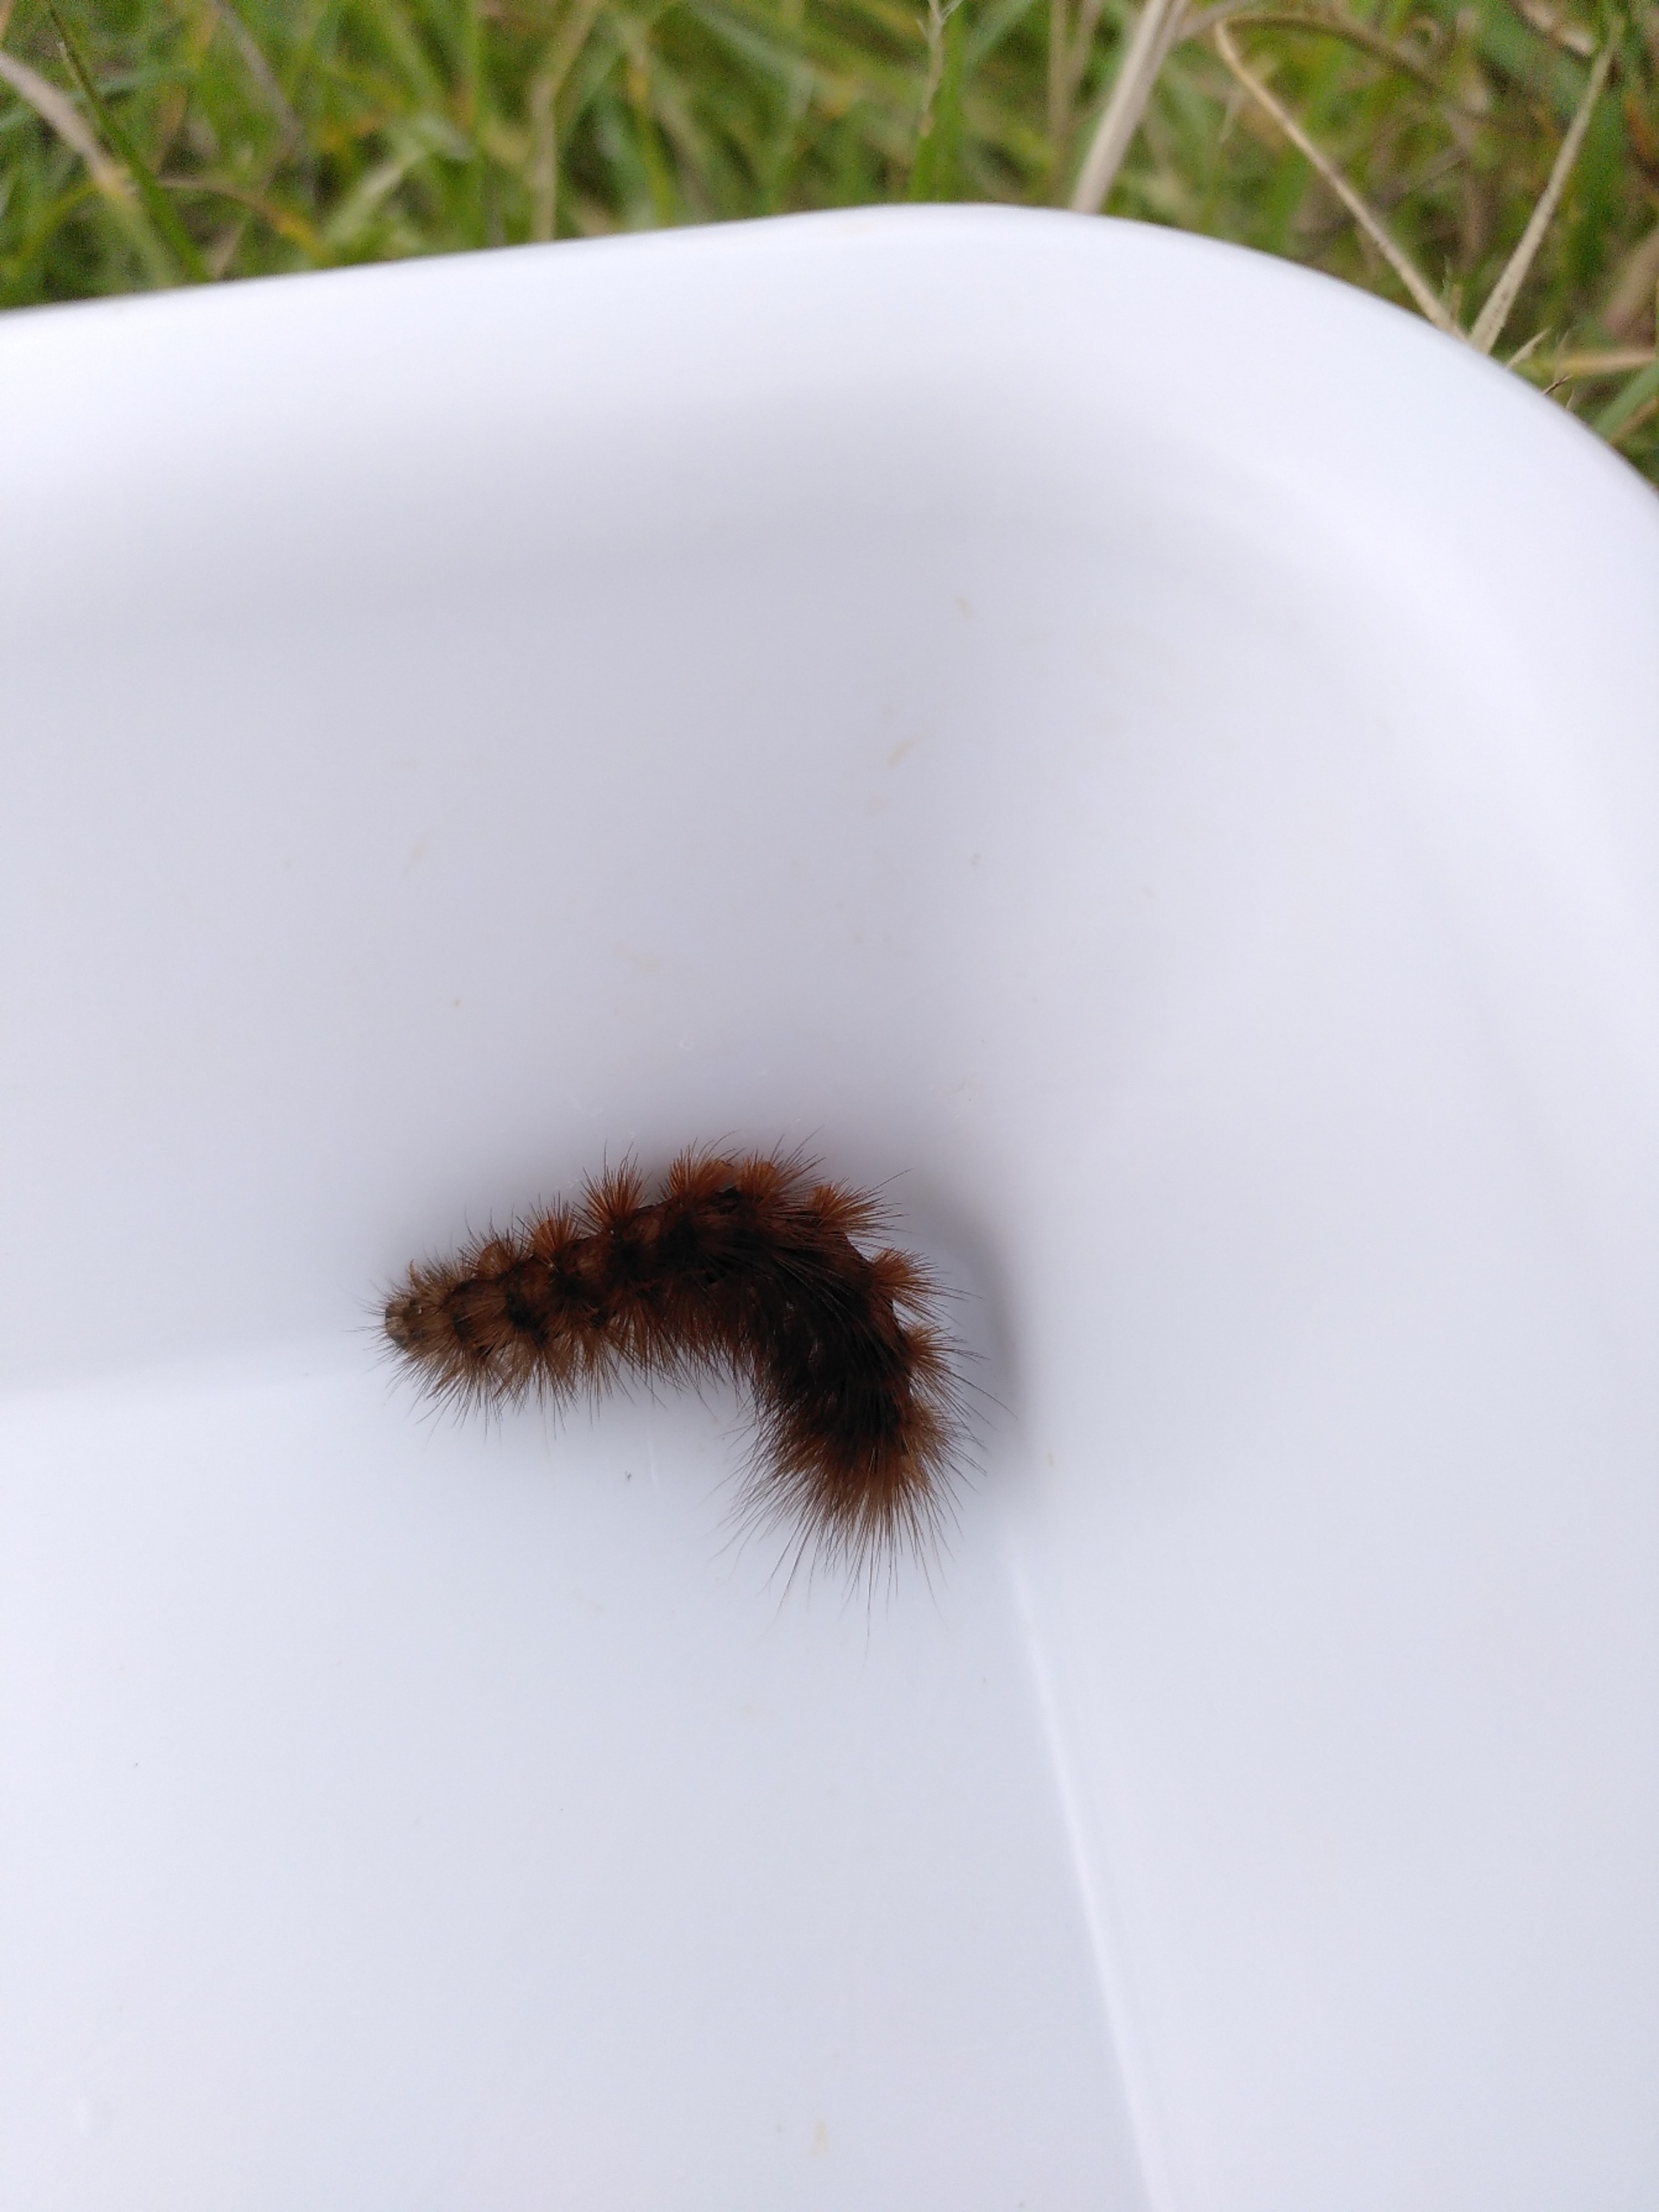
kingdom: Animalia
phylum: Arthropoda
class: Insecta
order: Lepidoptera
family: Erebidae
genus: Phragmatobia
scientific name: Phragmatobia fuliginosa
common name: Kanelbjørn
